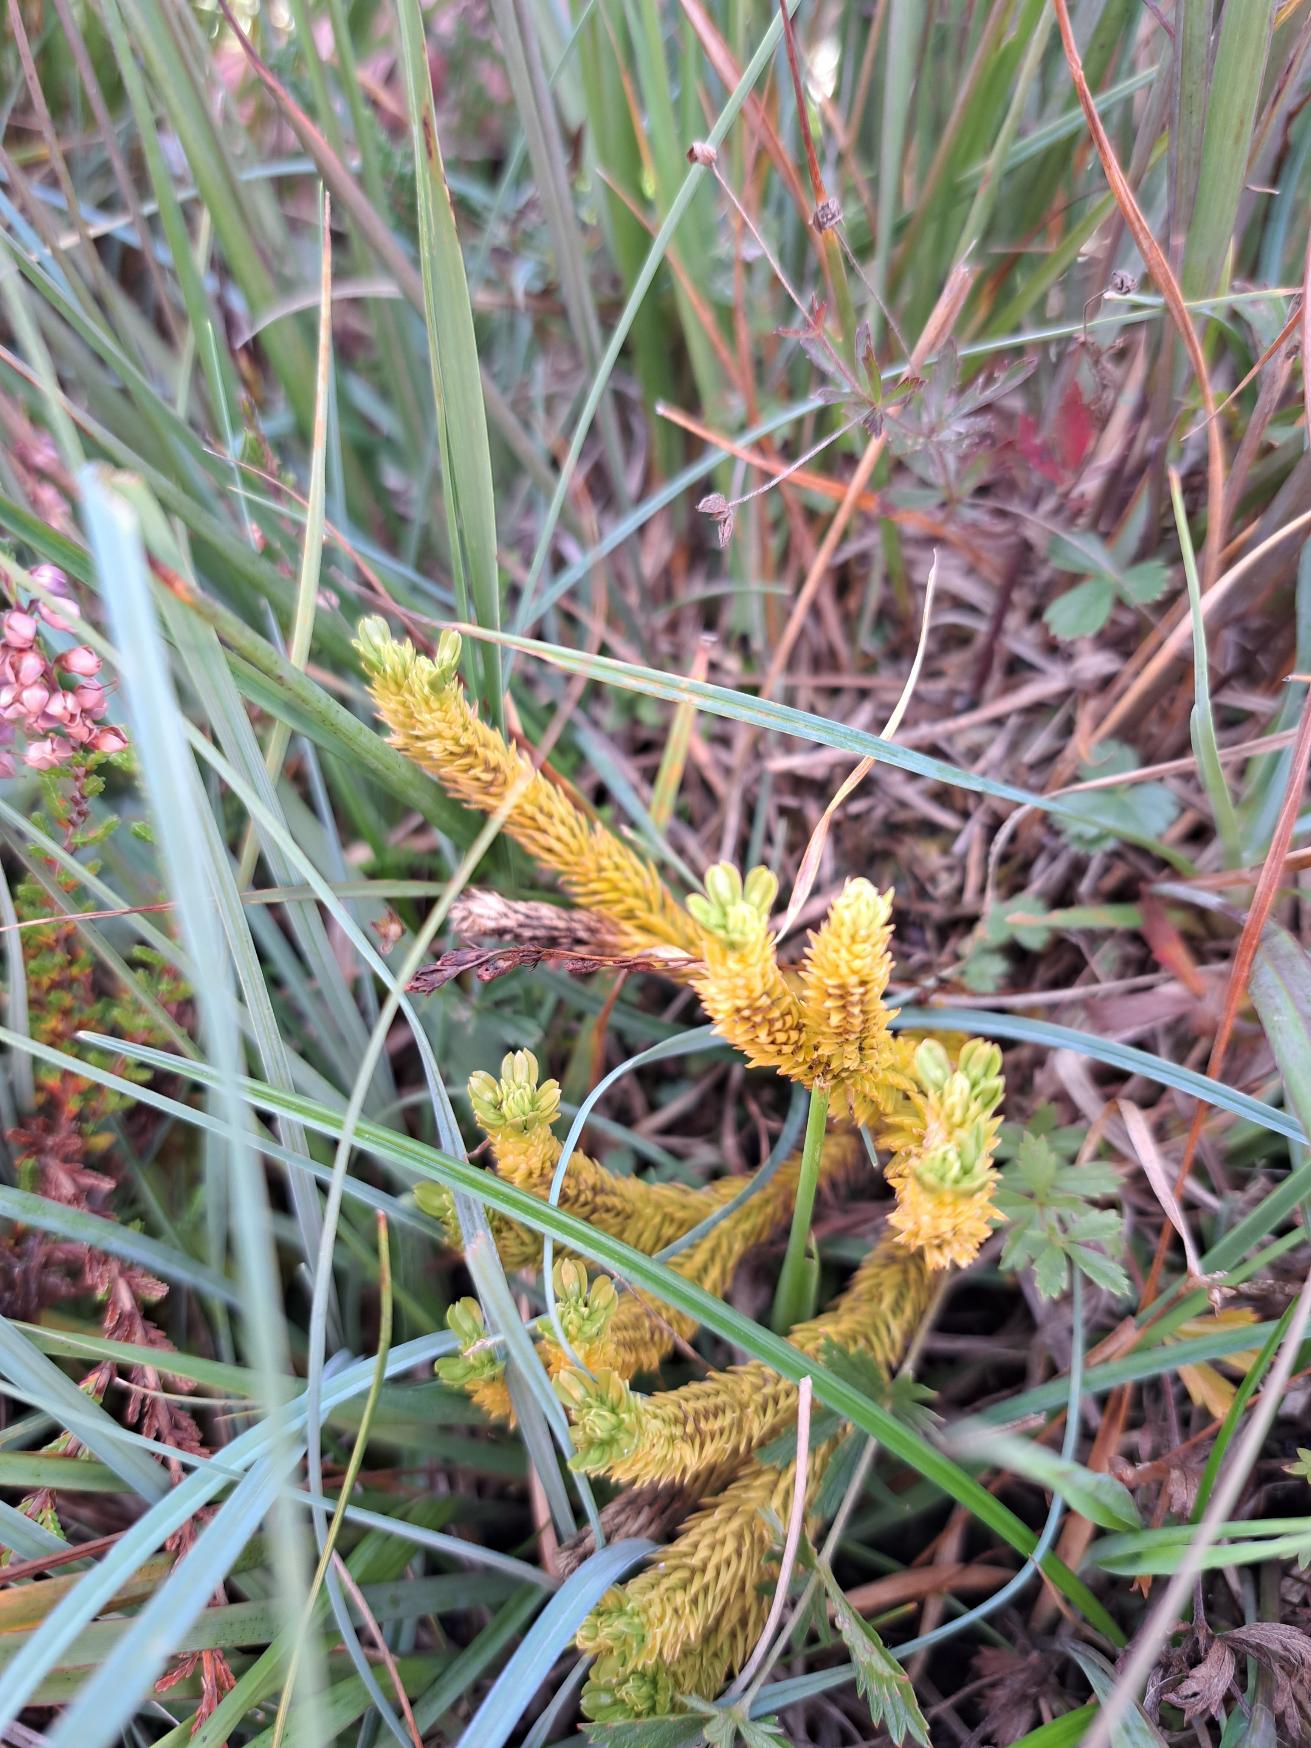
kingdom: Plantae
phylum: Tracheophyta
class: Lycopodiopsida
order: Lycopodiales
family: Lycopodiaceae
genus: Huperzia
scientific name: Huperzia selago
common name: Otteradet ulvefod
